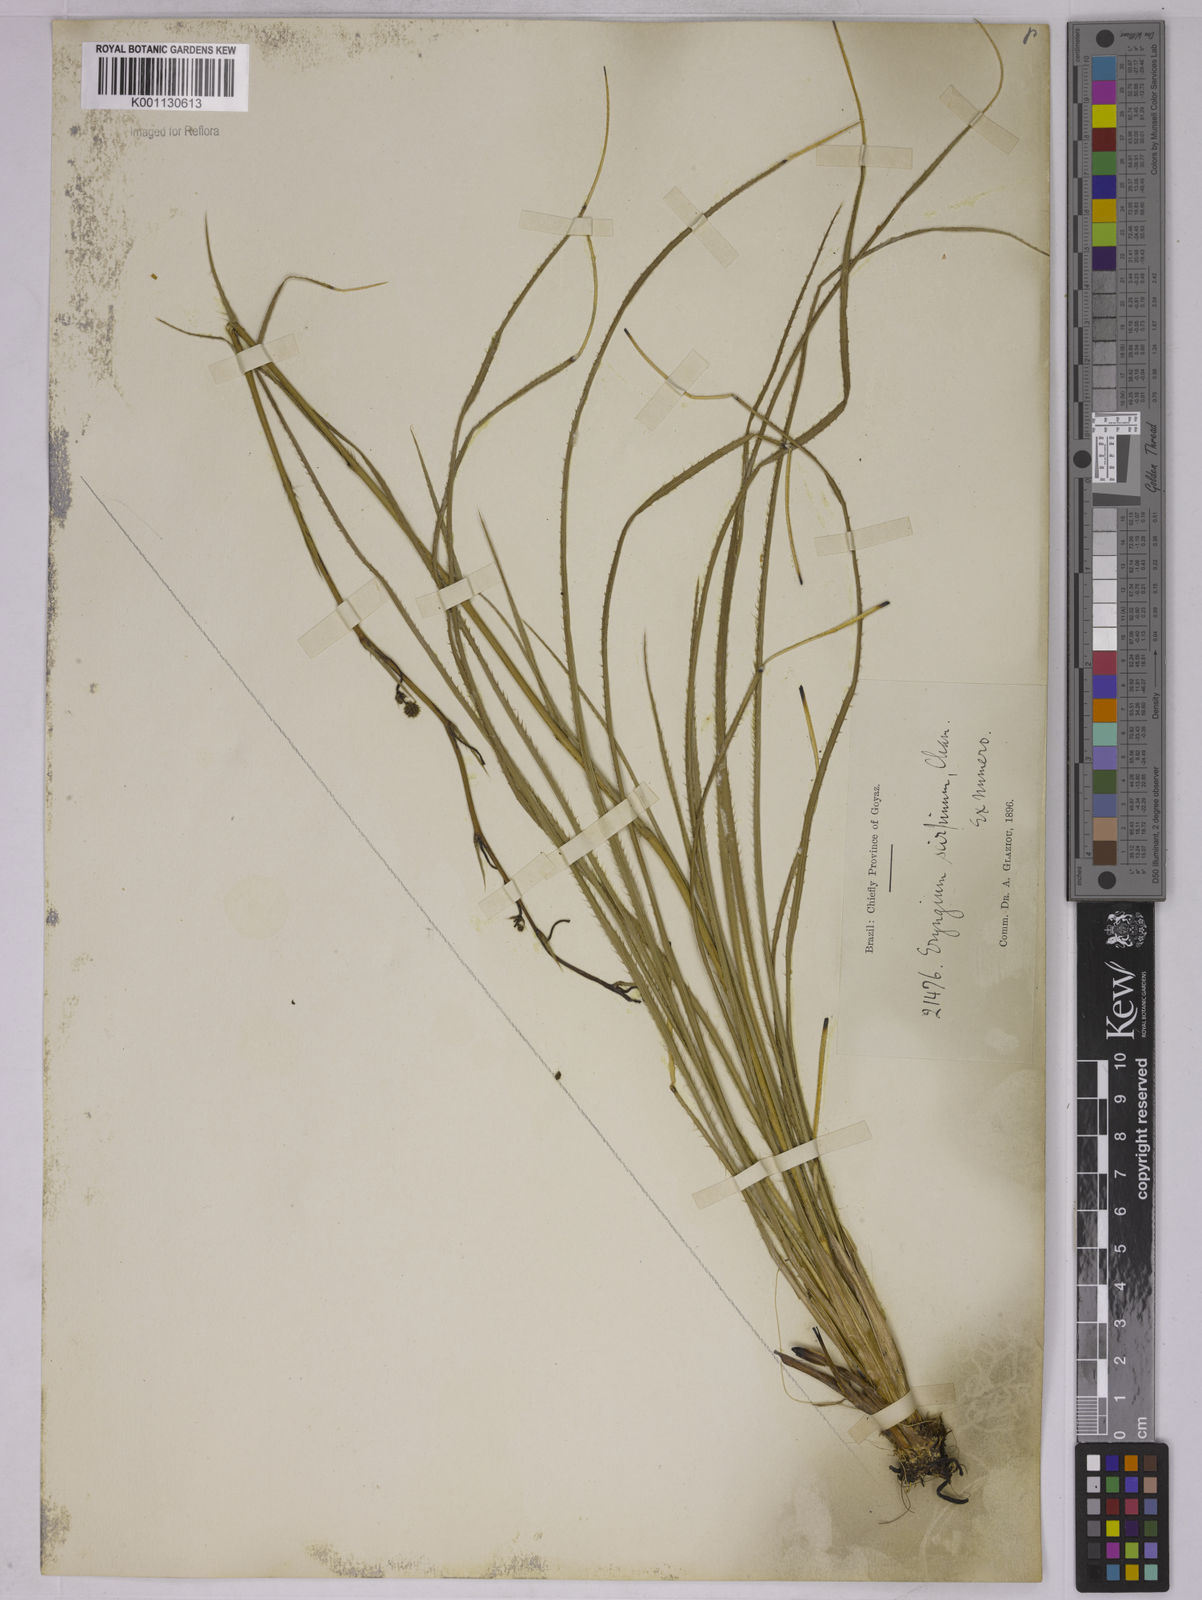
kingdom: Plantae
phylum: Tracheophyta
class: Magnoliopsida
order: Apiales
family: Apiaceae
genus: Eryngium
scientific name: Eryngium scirpinum
